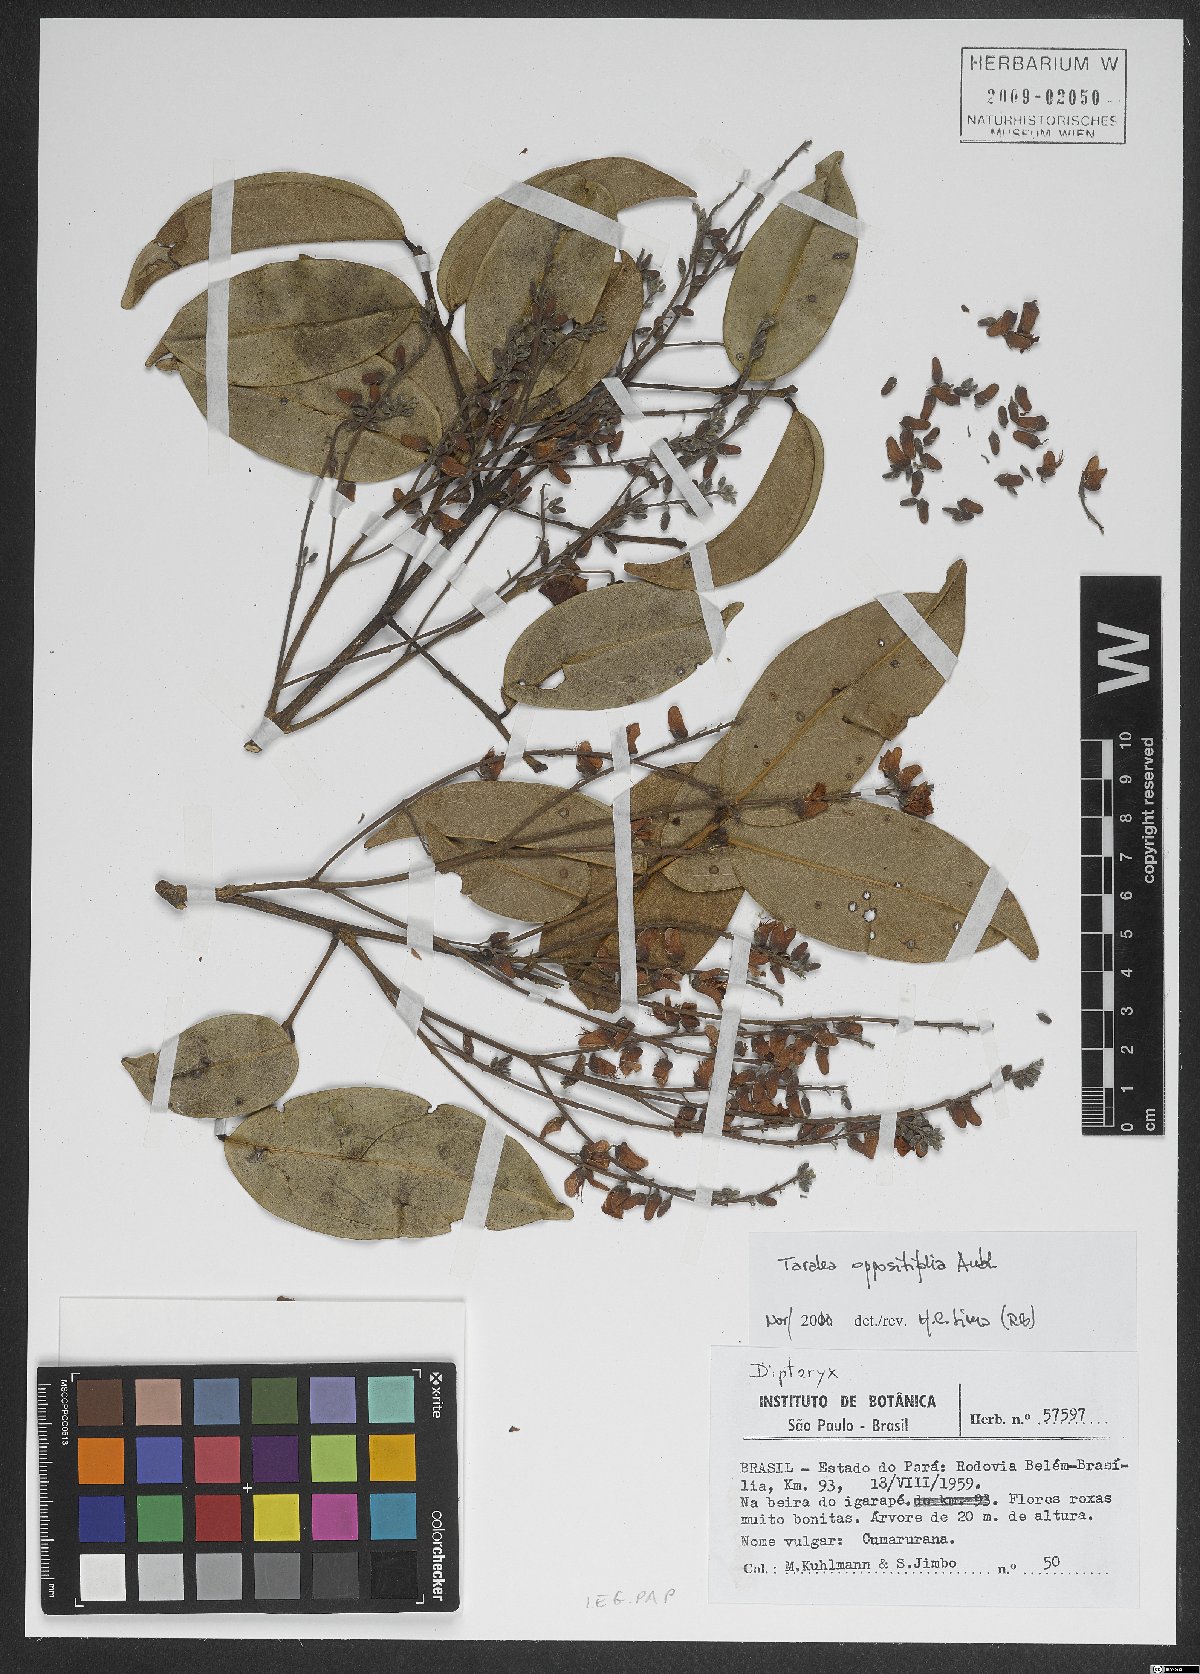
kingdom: Plantae
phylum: Tracheophyta
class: Magnoliopsida
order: Fabales
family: Fabaceae
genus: Taralea
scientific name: Taralea oppositifolia
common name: Tonka
